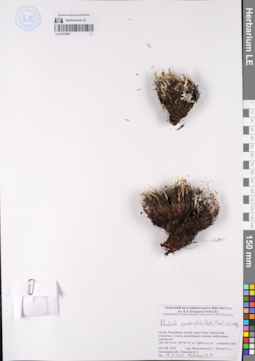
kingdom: Plantae
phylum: Tracheophyta
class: Magnoliopsida
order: Saxifragales
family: Crassulaceae
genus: Rhodiola
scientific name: Rhodiola quadrifida
